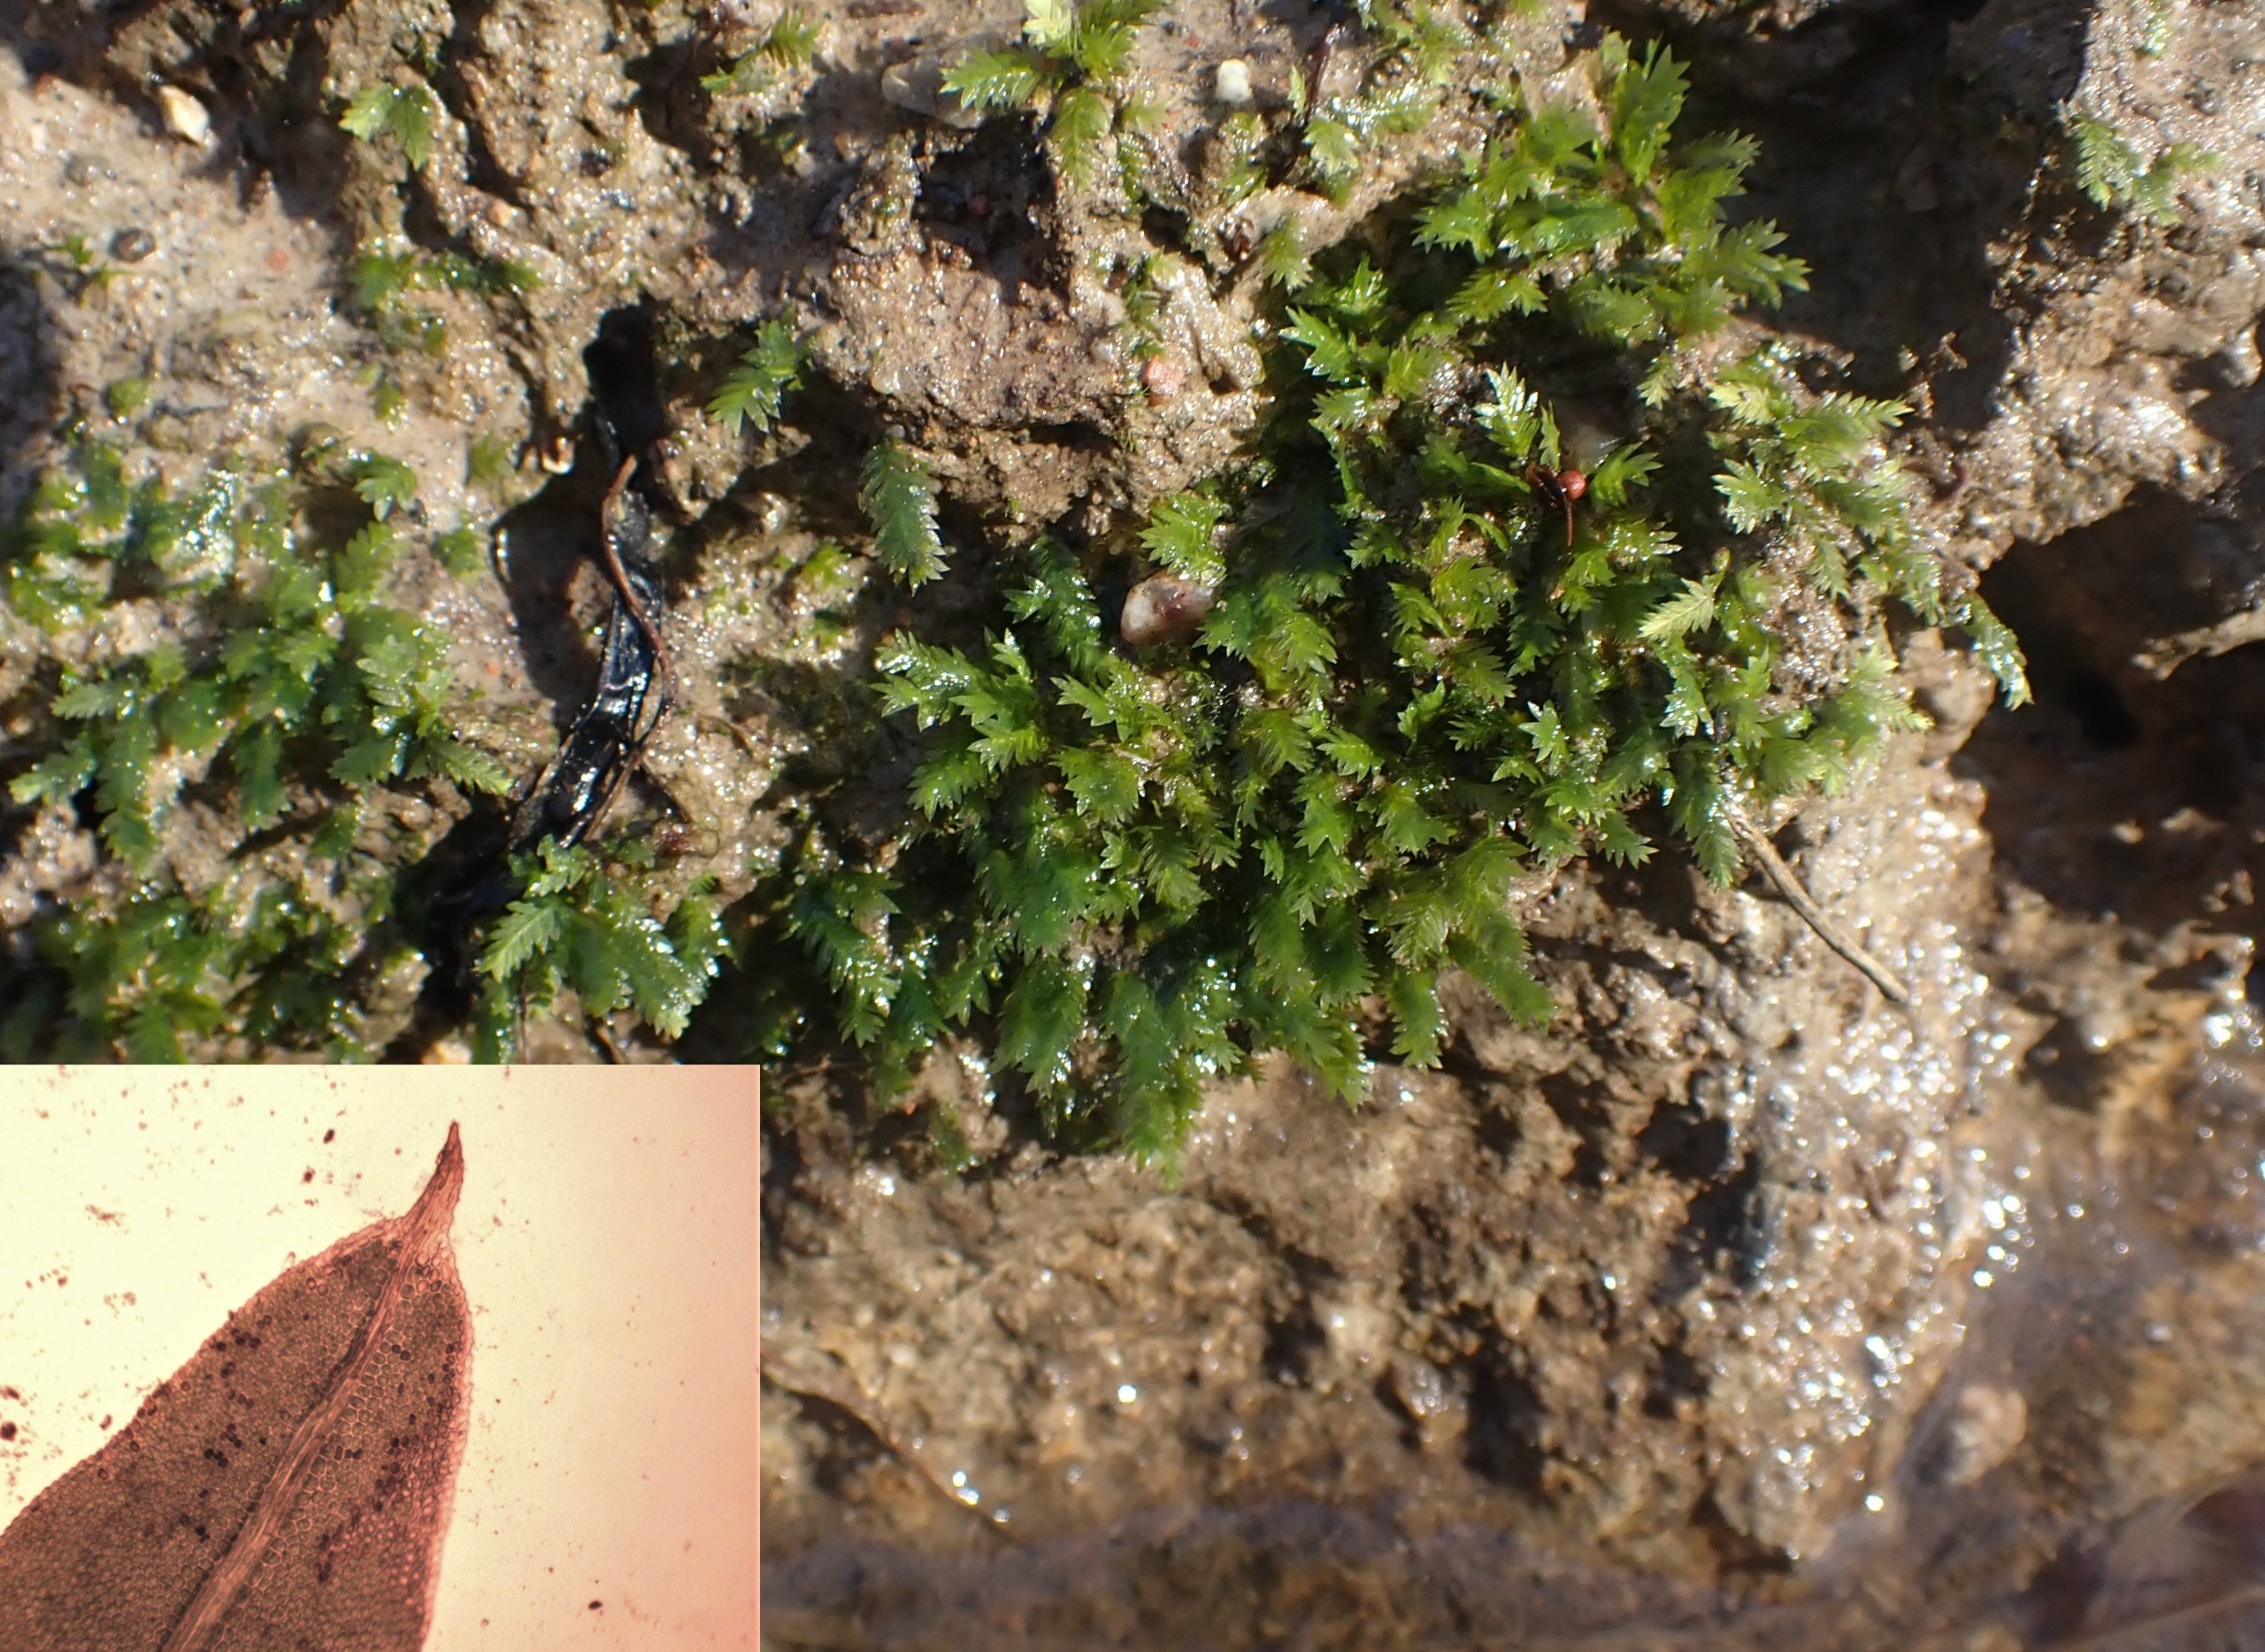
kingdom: Plantae
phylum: Bryophyta
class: Bryopsida
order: Dicranales
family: Fissidentaceae
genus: Fissidens
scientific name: Fissidens taxifolius
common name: Taksbladet rademos
